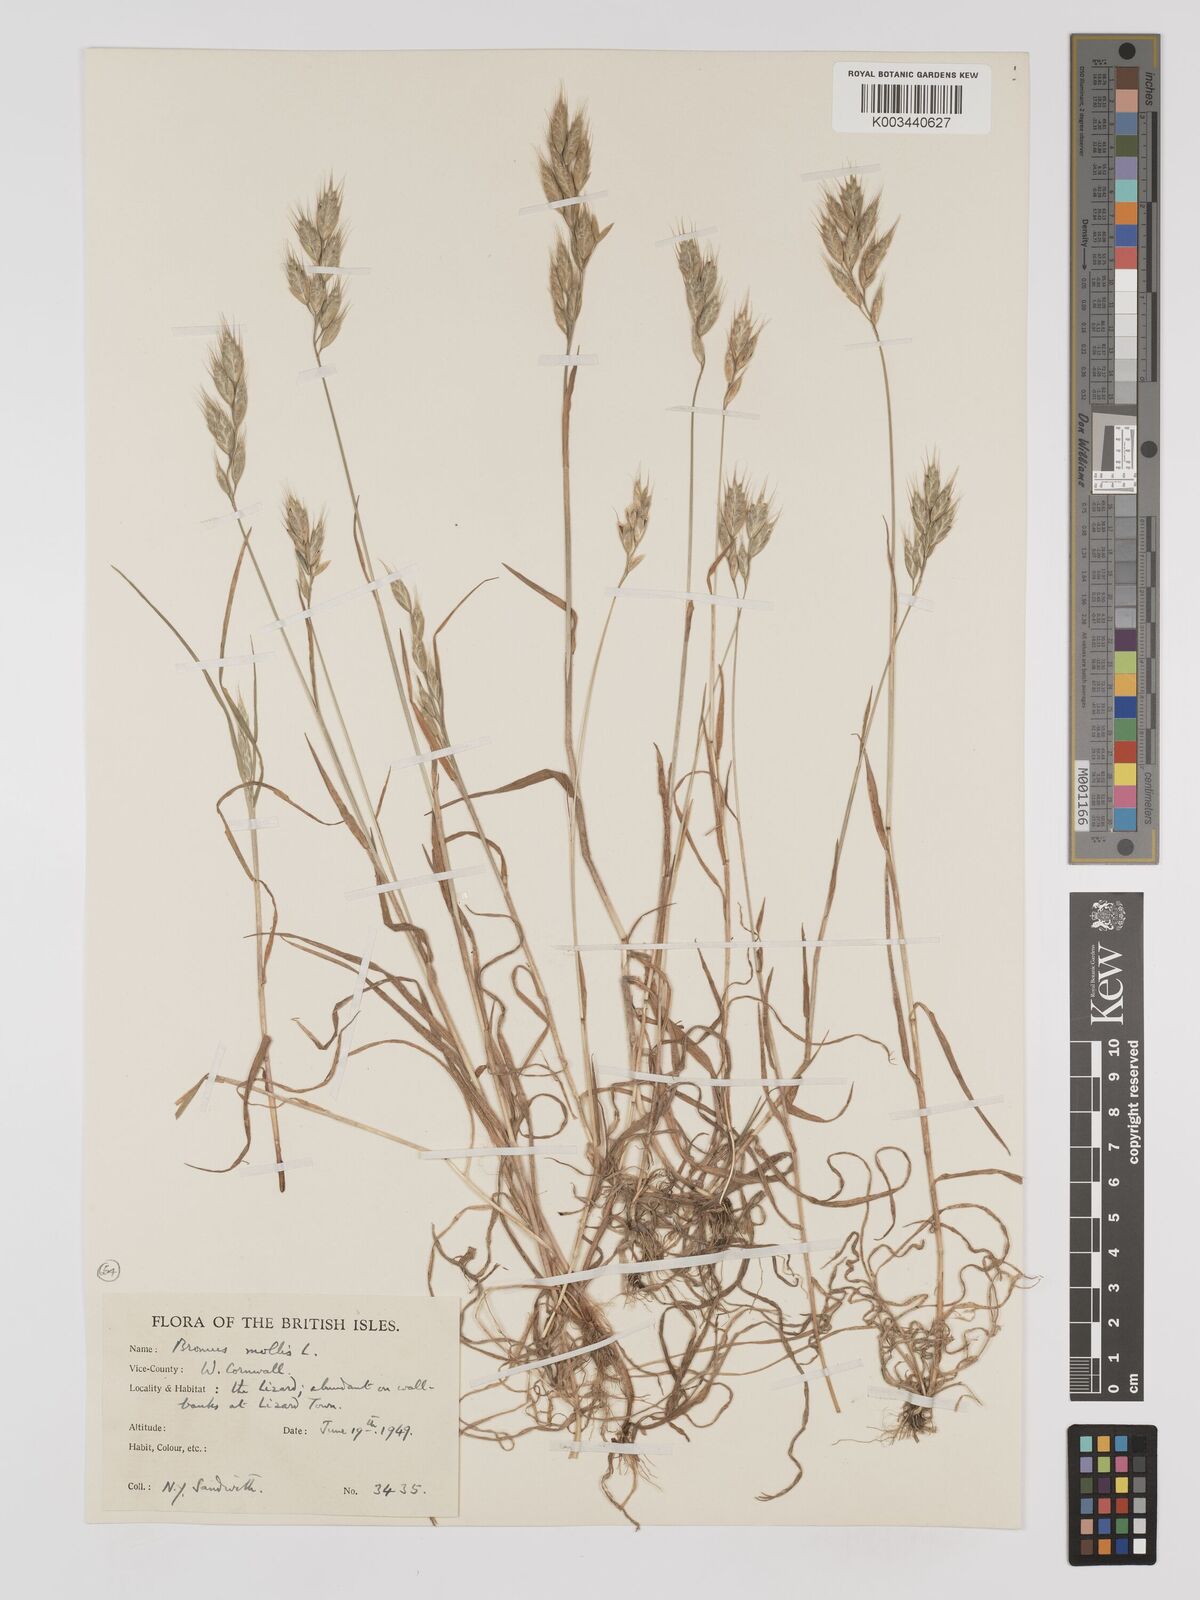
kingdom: Plantae
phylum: Tracheophyta
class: Liliopsida
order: Poales
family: Poaceae
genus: Bromus
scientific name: Bromus hordeaceus
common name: Soft brome
